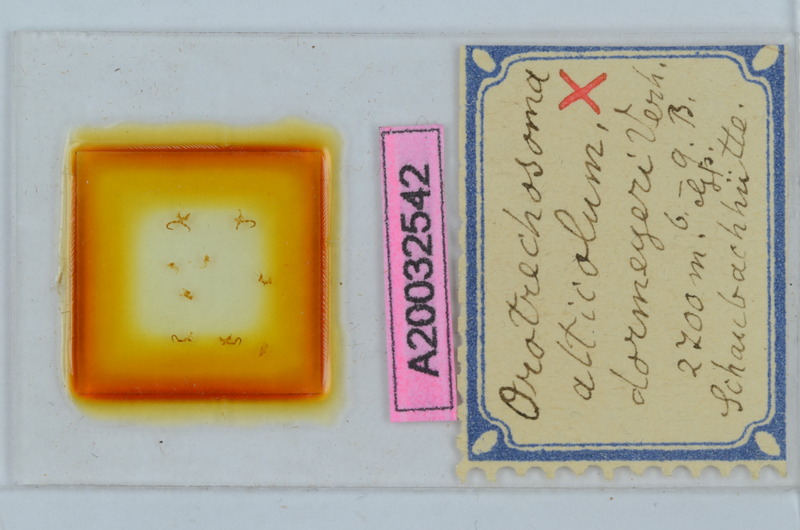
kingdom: Animalia
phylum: Arthropoda
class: Diplopoda
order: Chordeumatida
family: Craspedosomatidae
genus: Pterygophorosoma
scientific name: Pterygophorosoma alticolum
